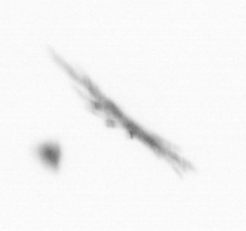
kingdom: Chromista
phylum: Ochrophyta
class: Bacillariophyceae
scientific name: Bacillariophyceae
